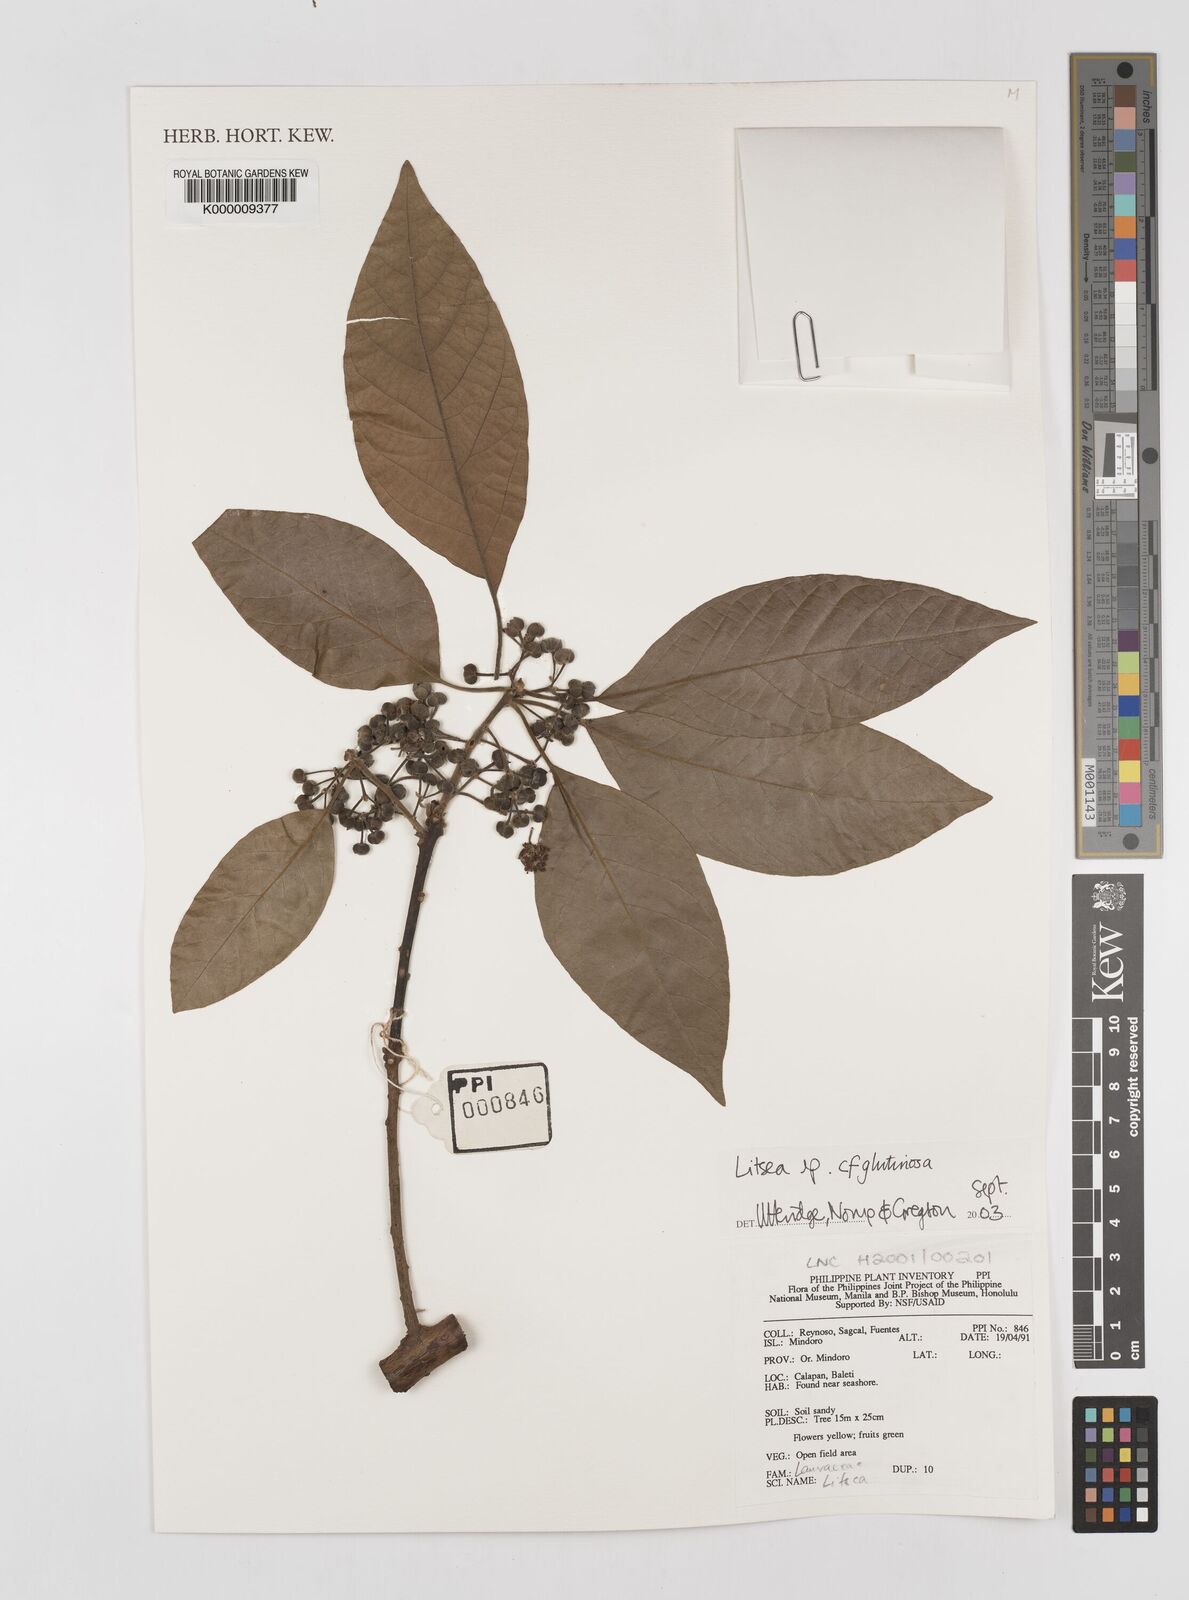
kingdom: Plantae
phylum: Tracheophyta
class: Magnoliopsida
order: Laurales
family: Lauraceae
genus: Litsea
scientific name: Litsea glutinosa
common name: Indian-laurel
